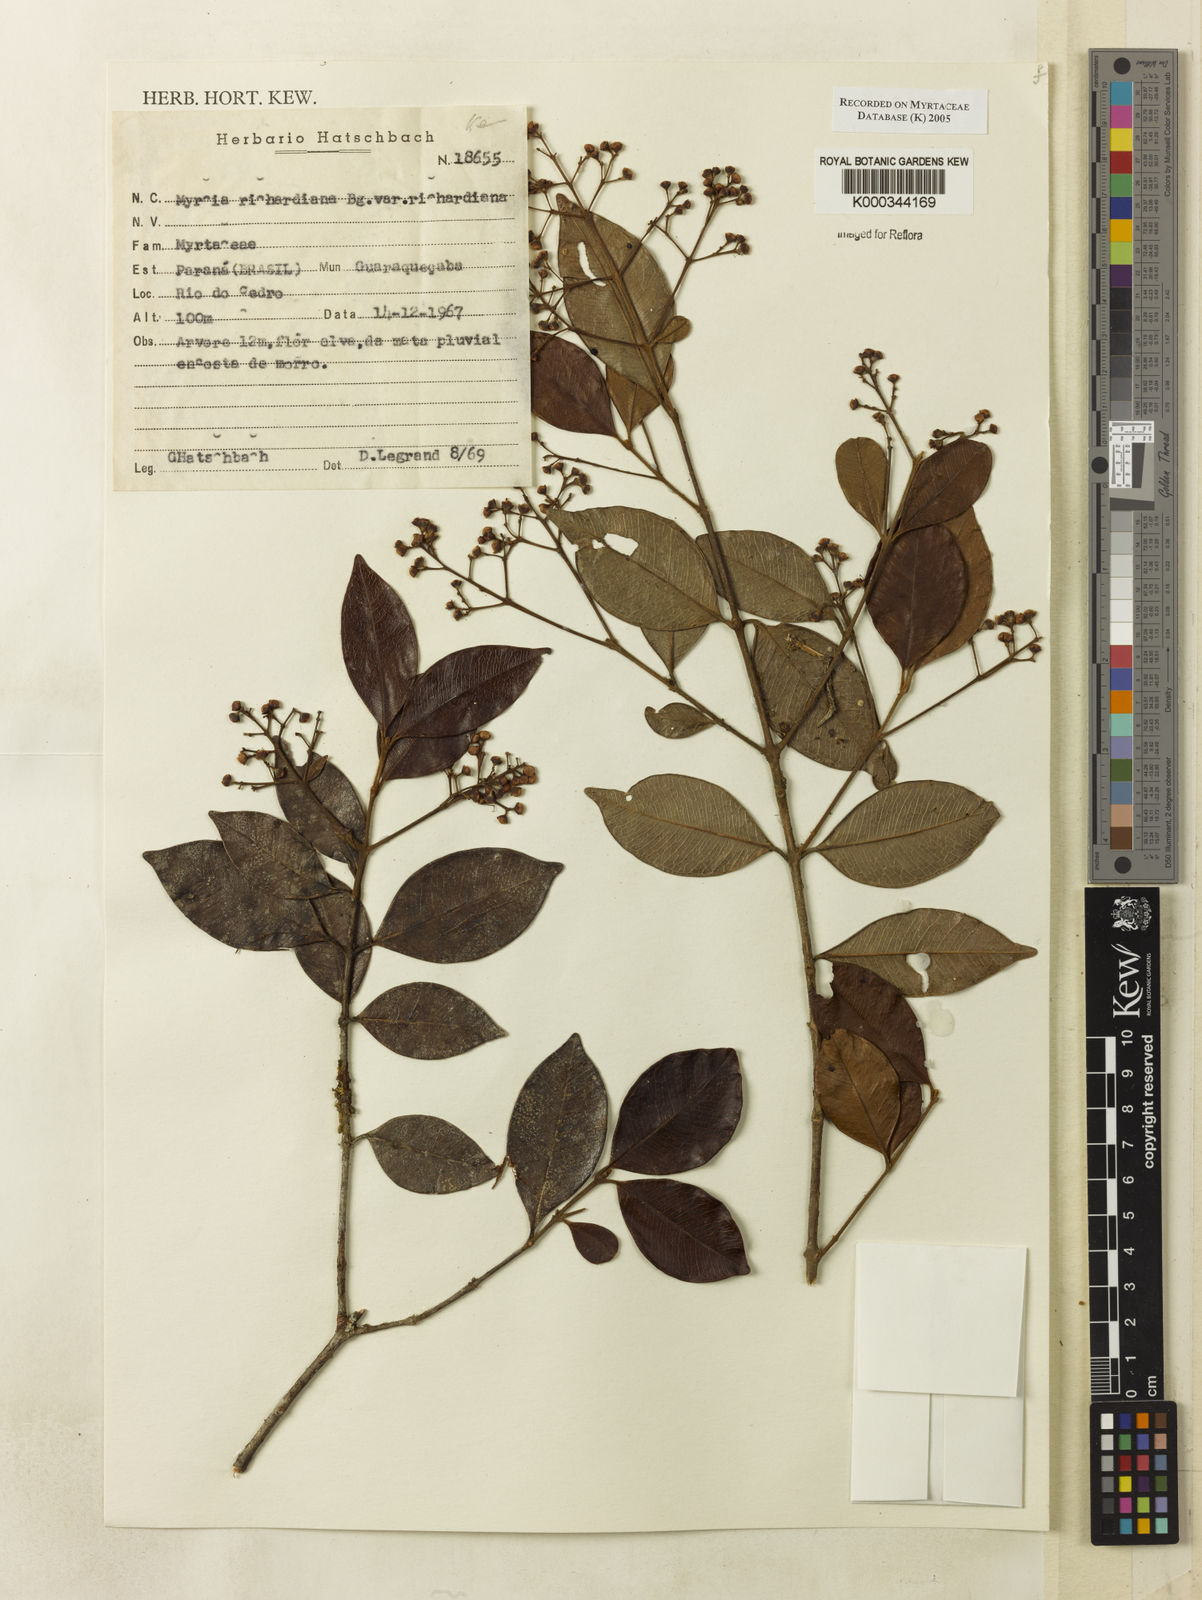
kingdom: Plantae
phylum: Tracheophyta
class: Magnoliopsida
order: Myrtales
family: Myrtaceae
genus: Myrcia
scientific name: Myrcia richardiana
